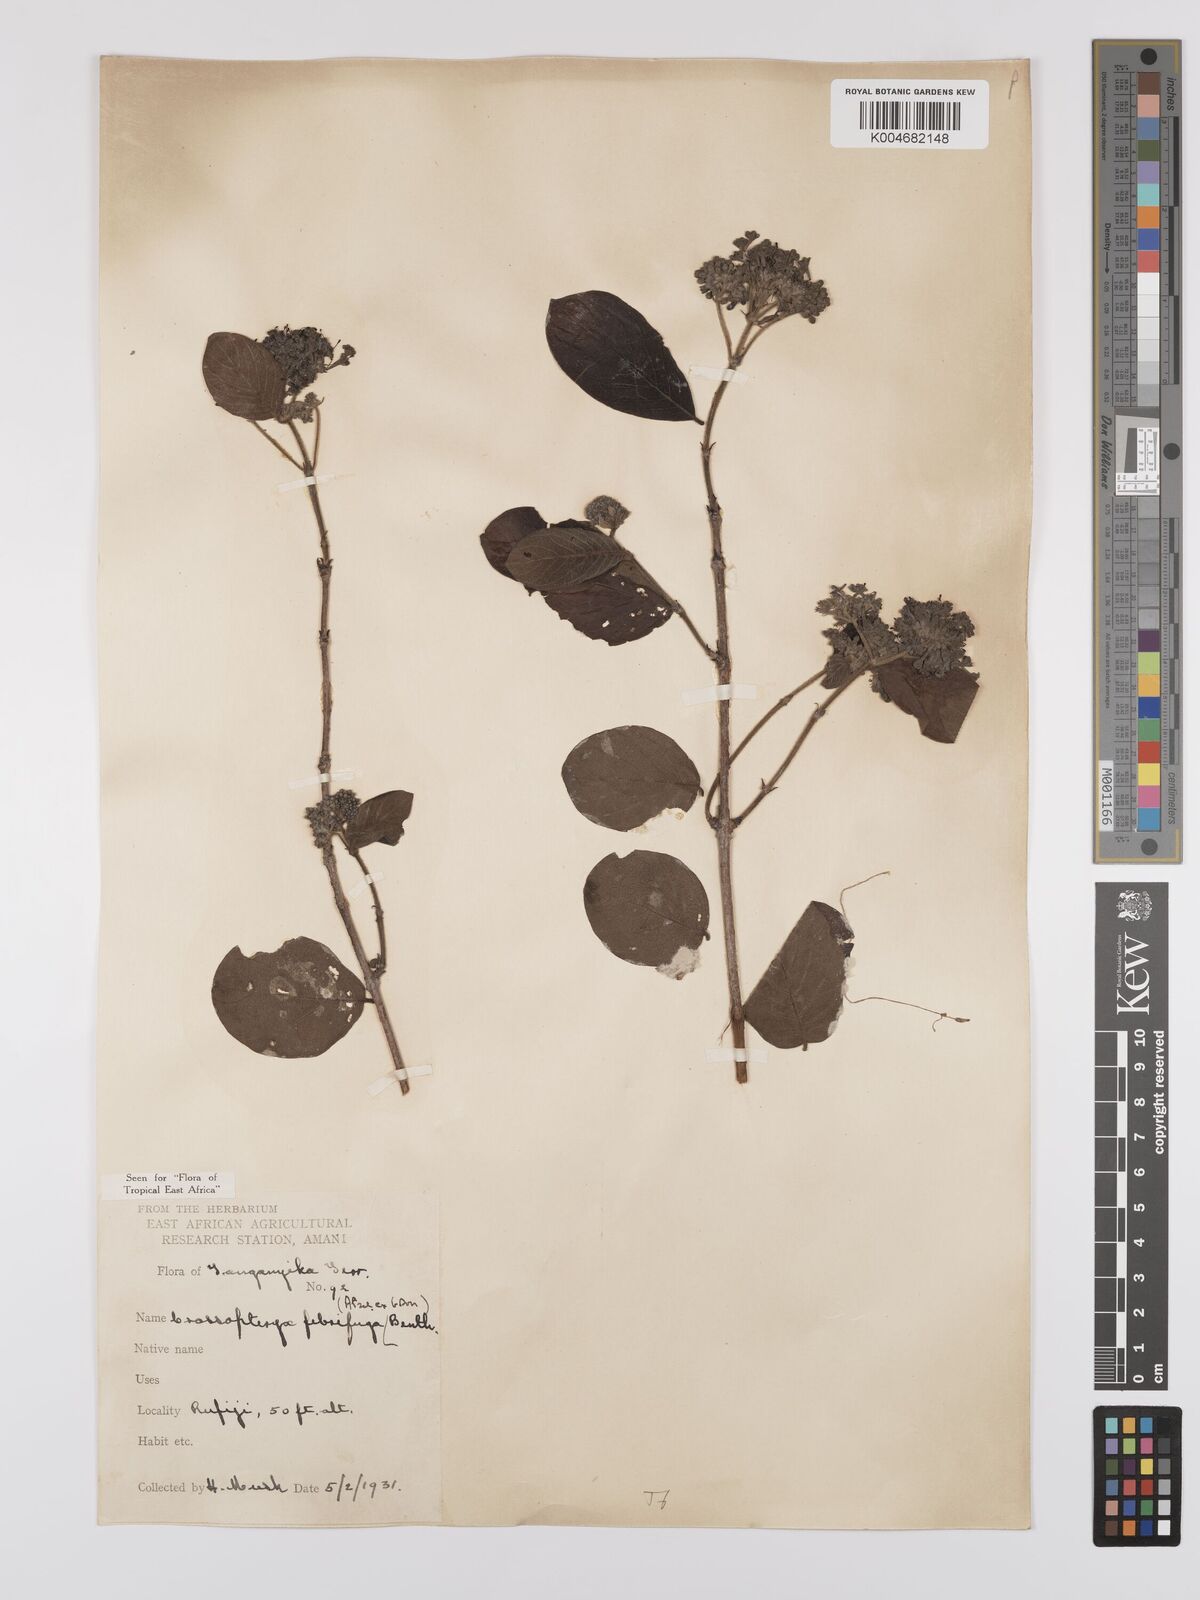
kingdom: Plantae
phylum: Tracheophyta
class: Magnoliopsida
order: Gentianales
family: Rubiaceae
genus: Crossopteryx
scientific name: Crossopteryx febrifuga
